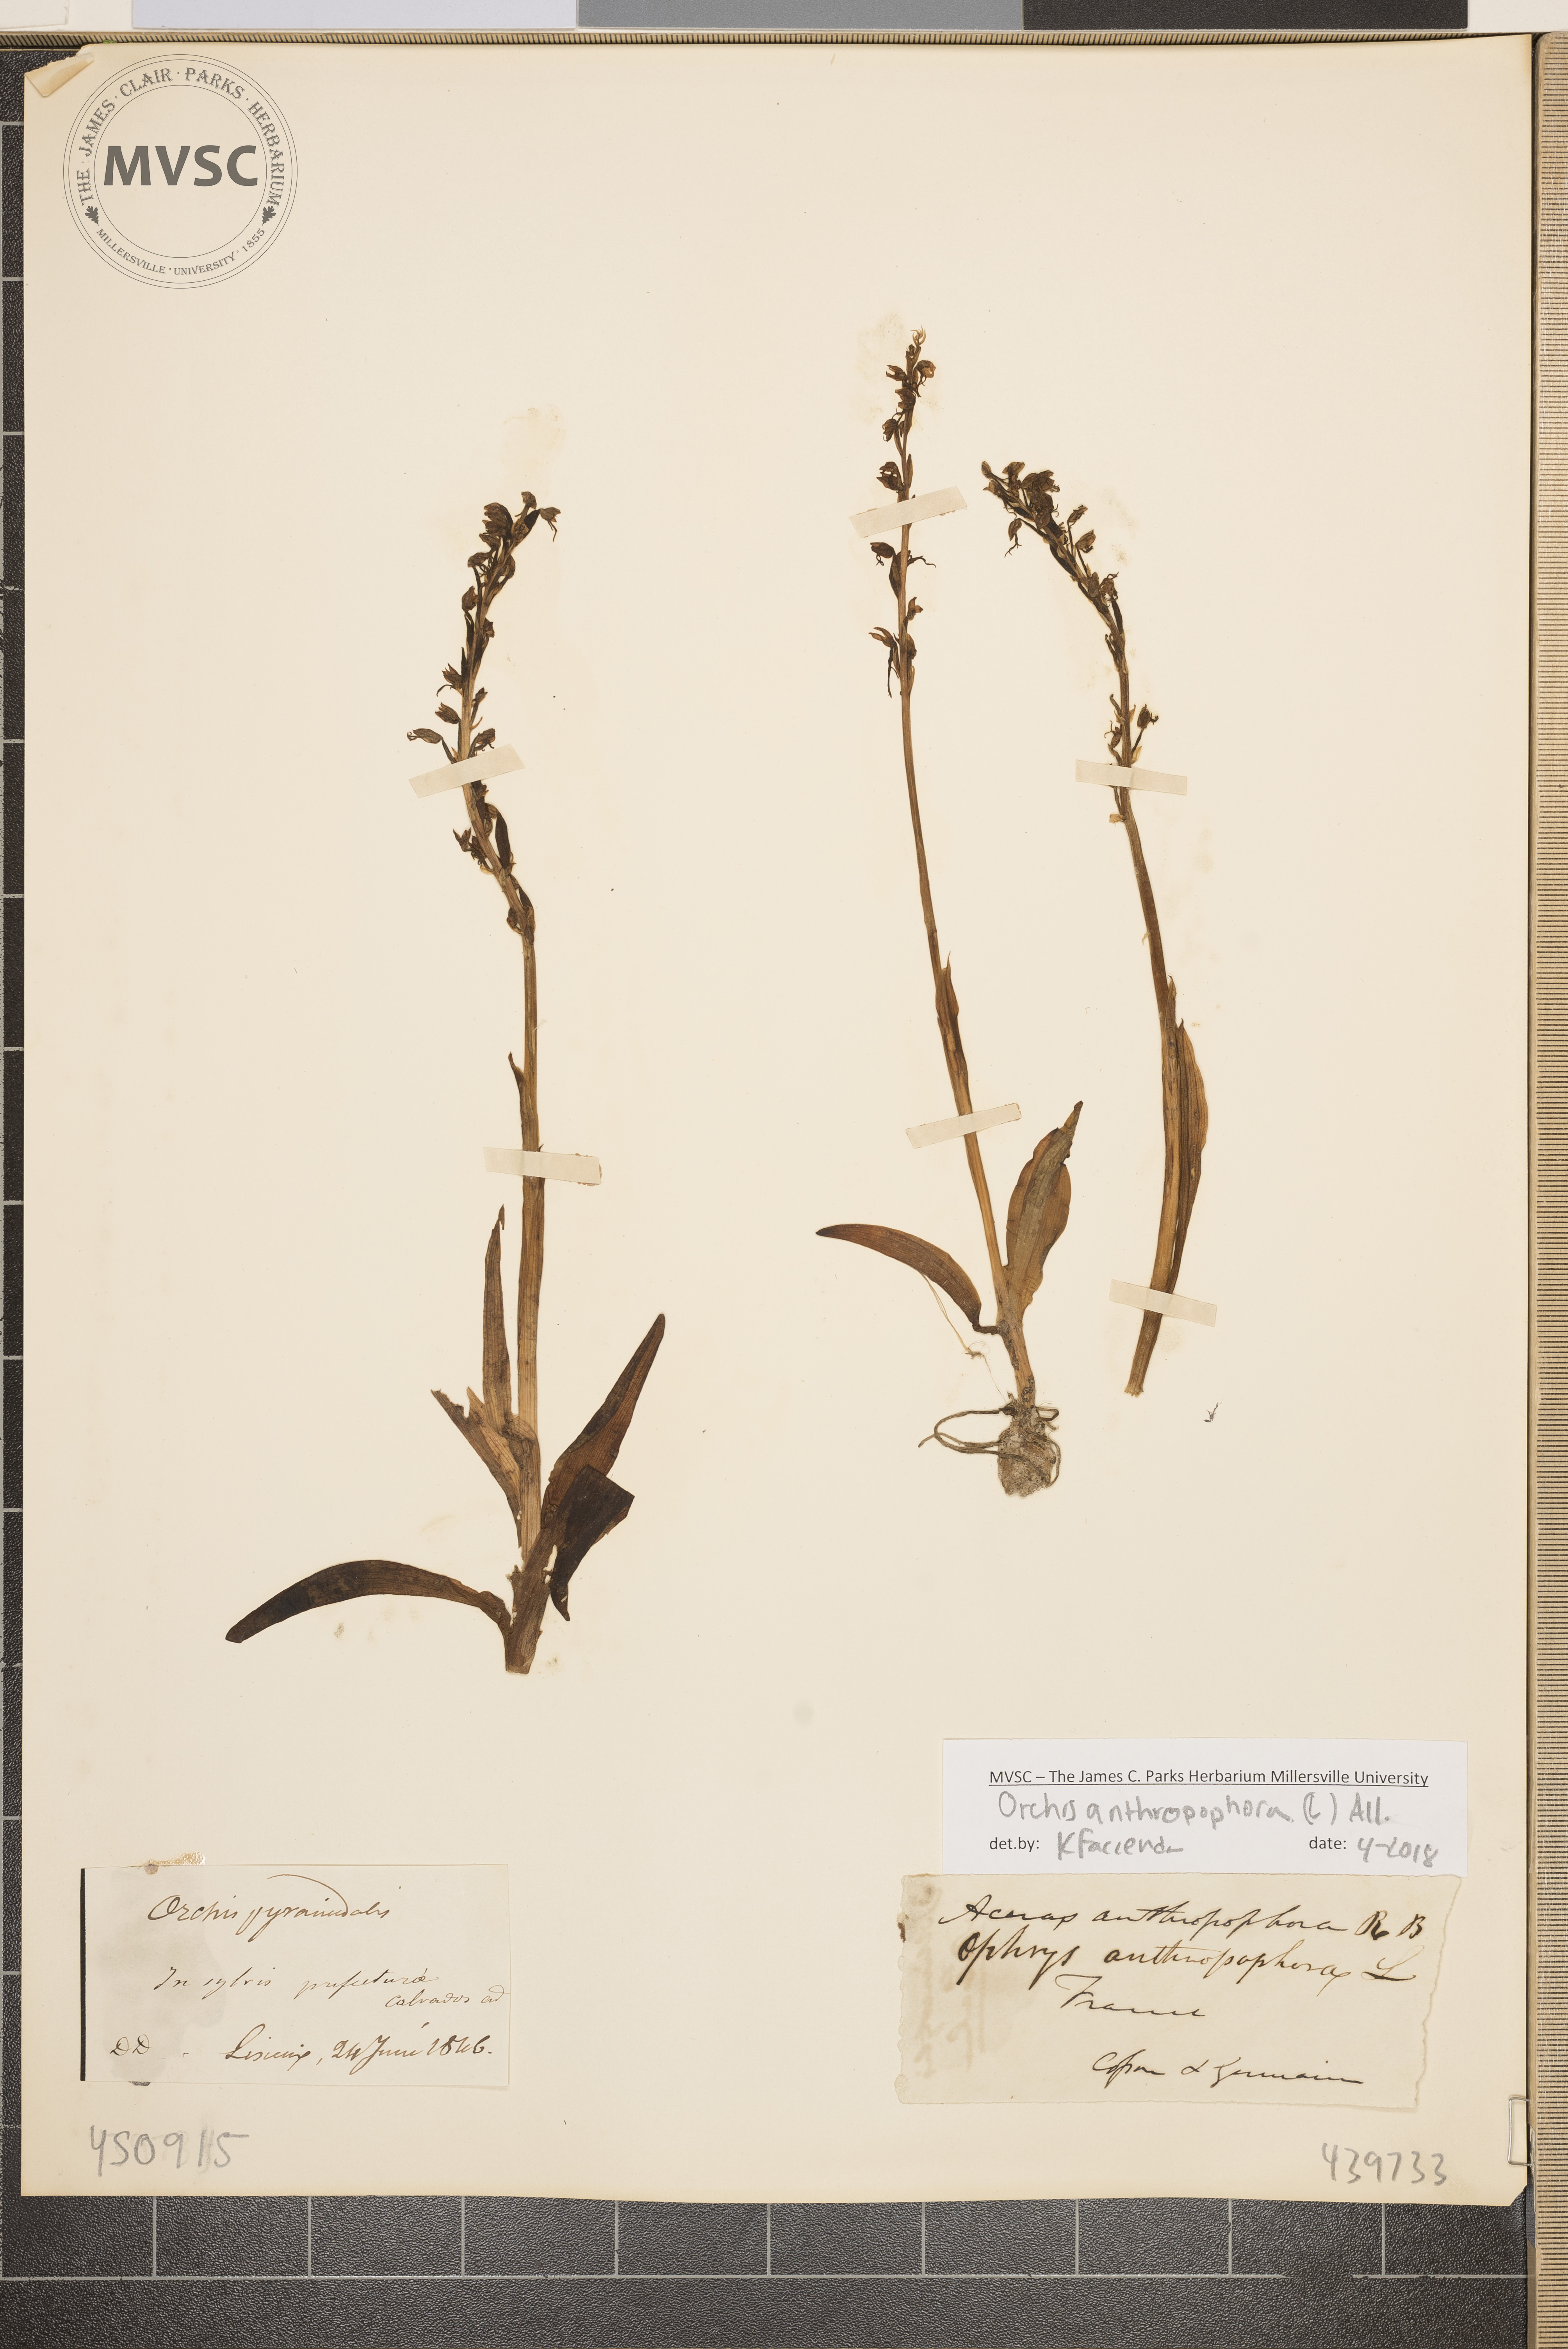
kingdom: Plantae
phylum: Tracheophyta
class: Liliopsida
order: Asparagales
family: Orchidaceae
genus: Orchis
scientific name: Orchis pyramidalis
